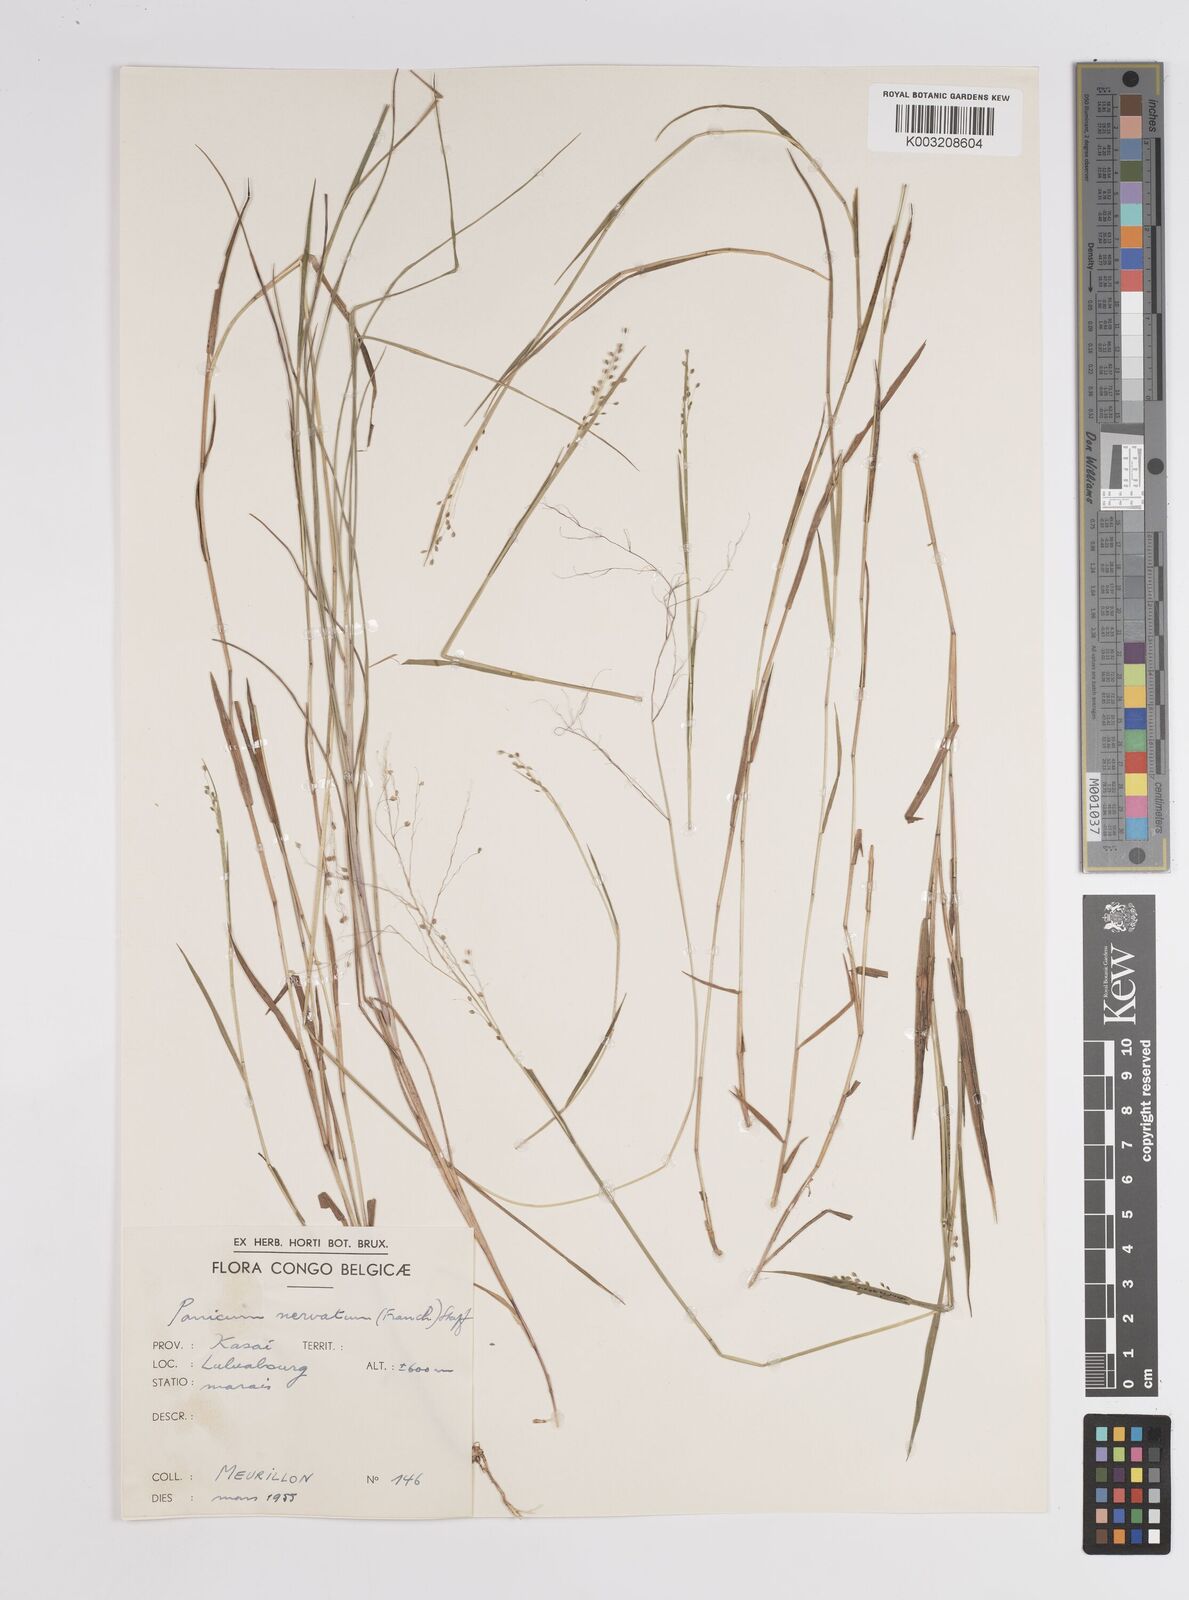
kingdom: Plantae
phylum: Tracheophyta
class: Liliopsida
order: Poales
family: Poaceae
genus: Trichanthecium
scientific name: Trichanthecium nervatum
